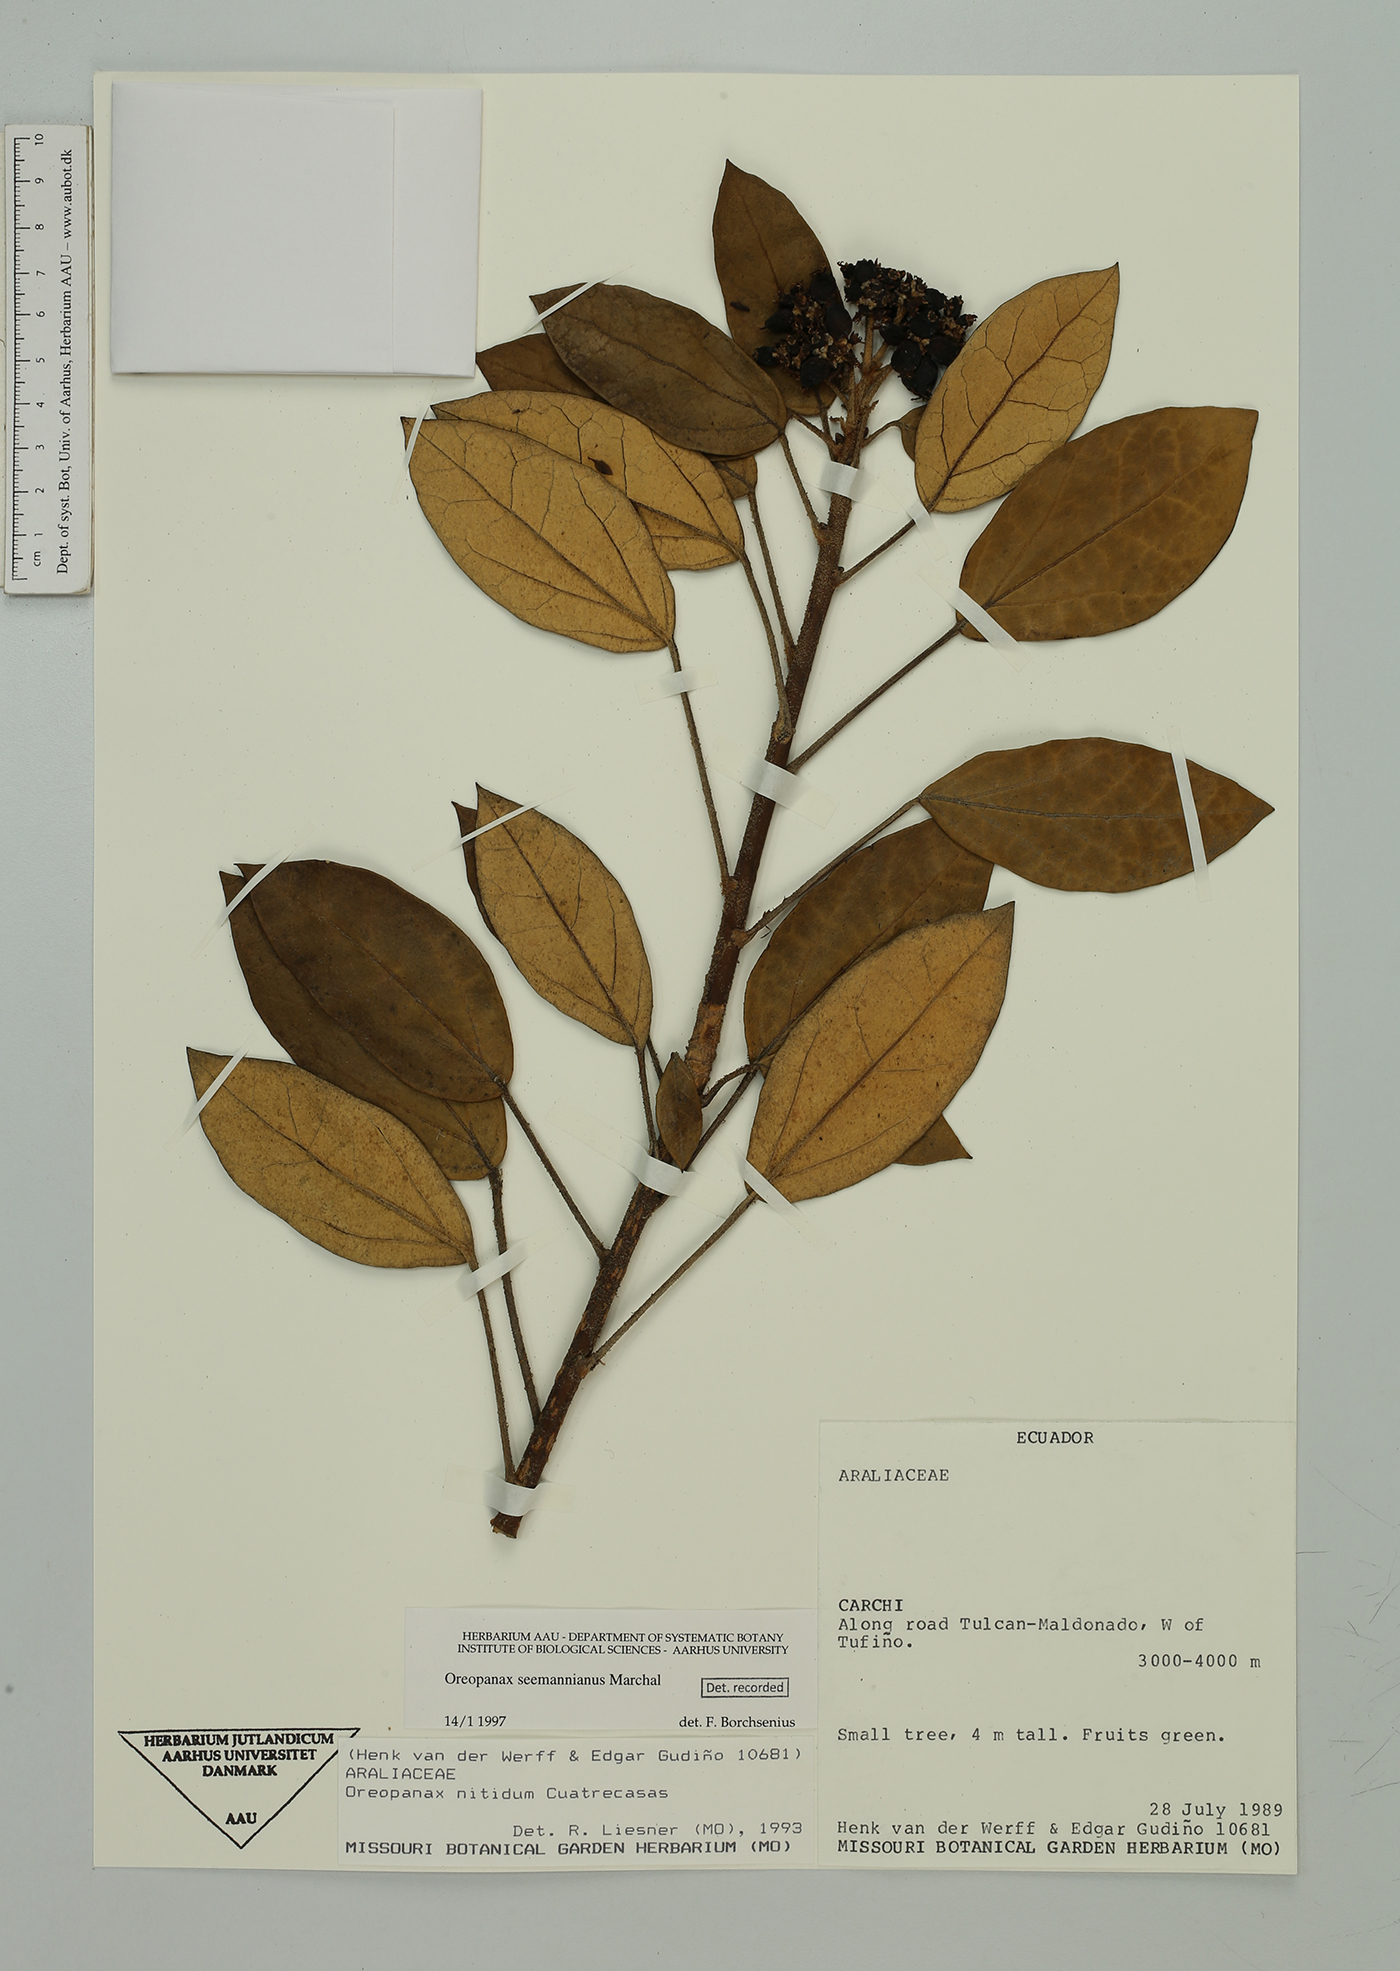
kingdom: Plantae
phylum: Tracheophyta
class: Magnoliopsida
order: Apiales
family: Araliaceae
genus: Oreopanax
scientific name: Oreopanax seemannianus
